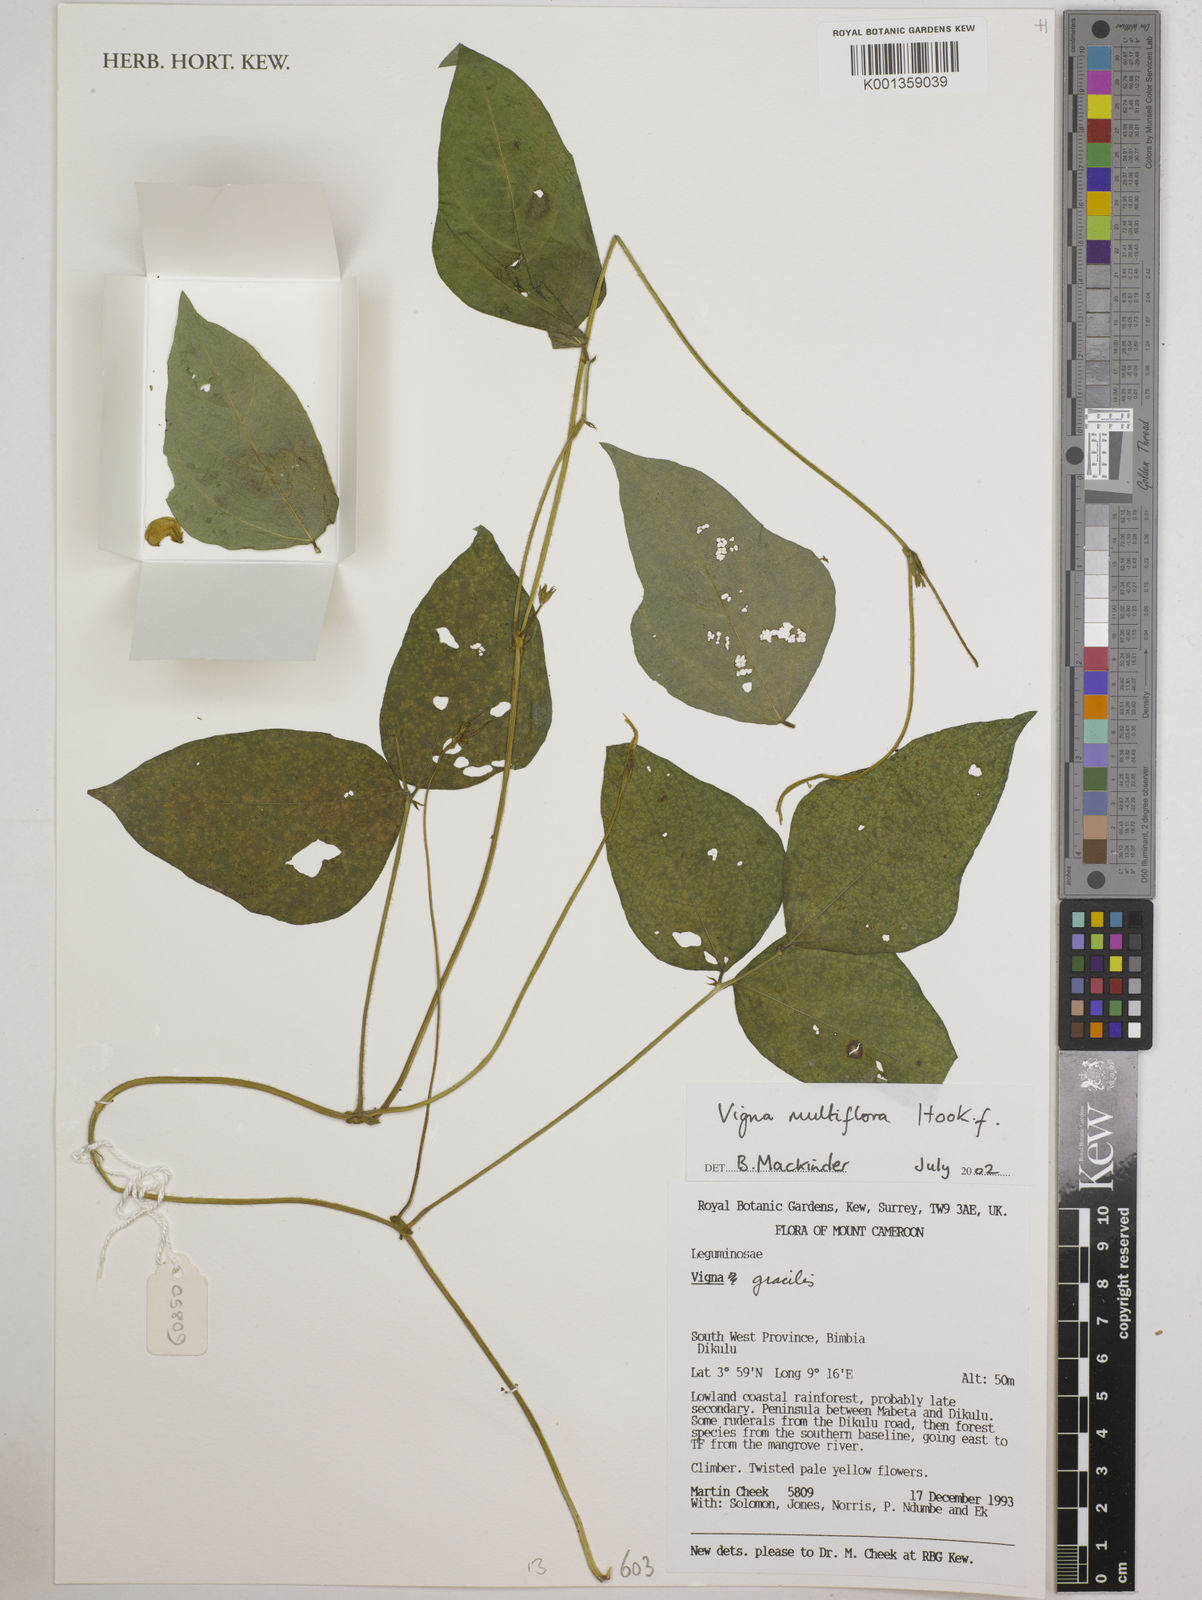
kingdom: Plantae
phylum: Tracheophyta
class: Magnoliopsida
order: Fabales
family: Fabaceae
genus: Vigna
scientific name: Vigna gracilis
